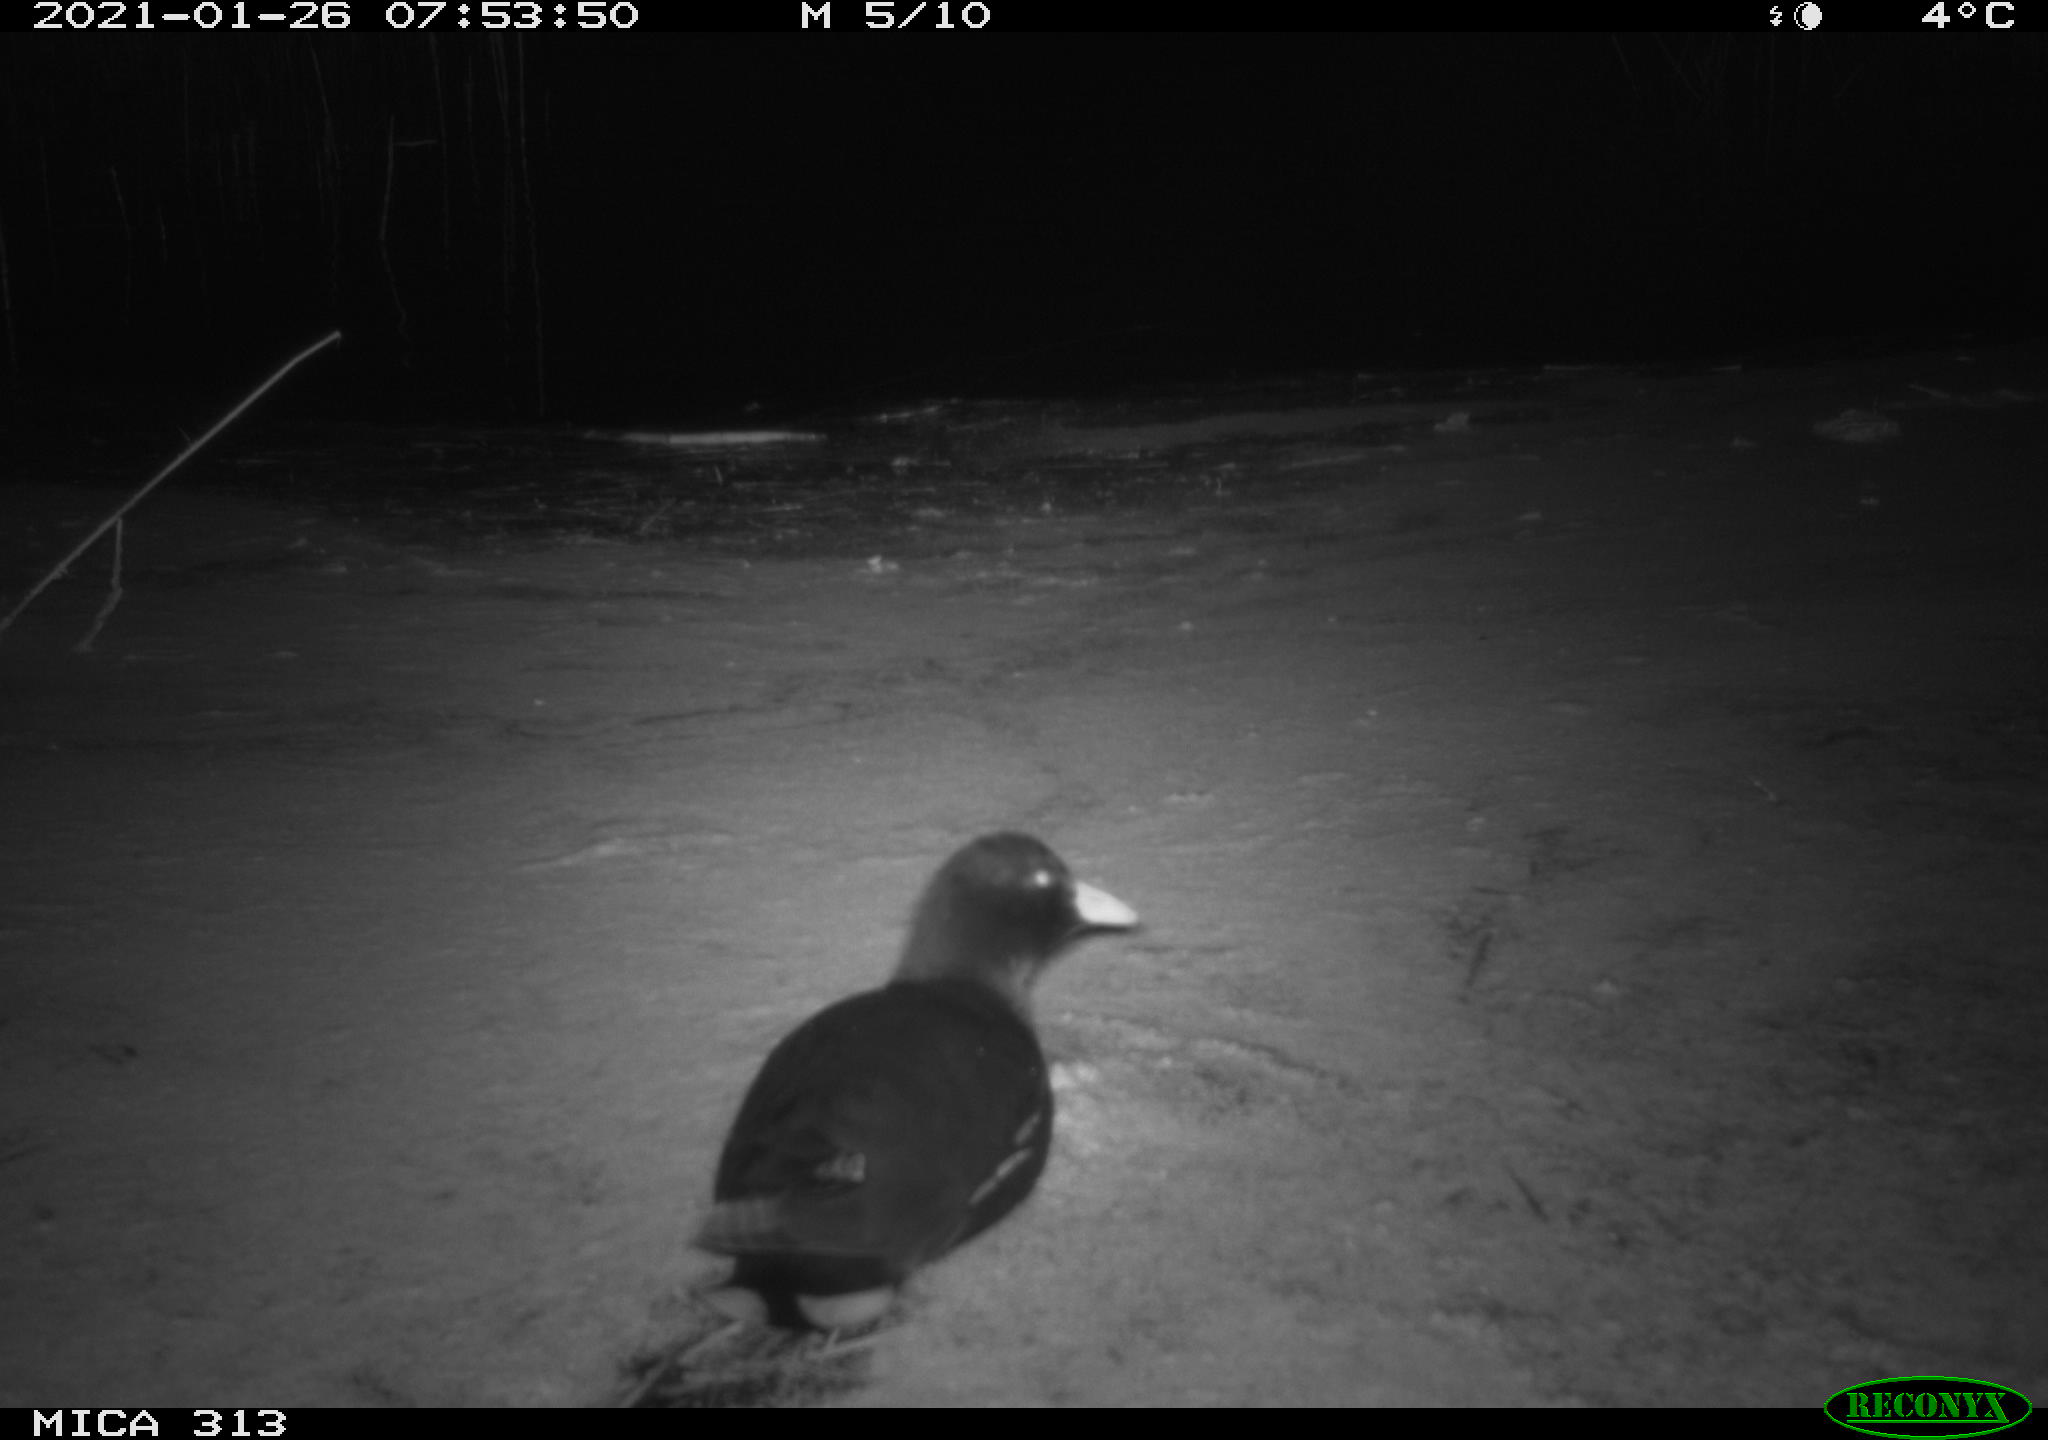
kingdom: Animalia
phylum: Chordata
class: Aves
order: Gruiformes
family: Rallidae
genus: Fulica
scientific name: Fulica atra
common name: Eurasian coot
